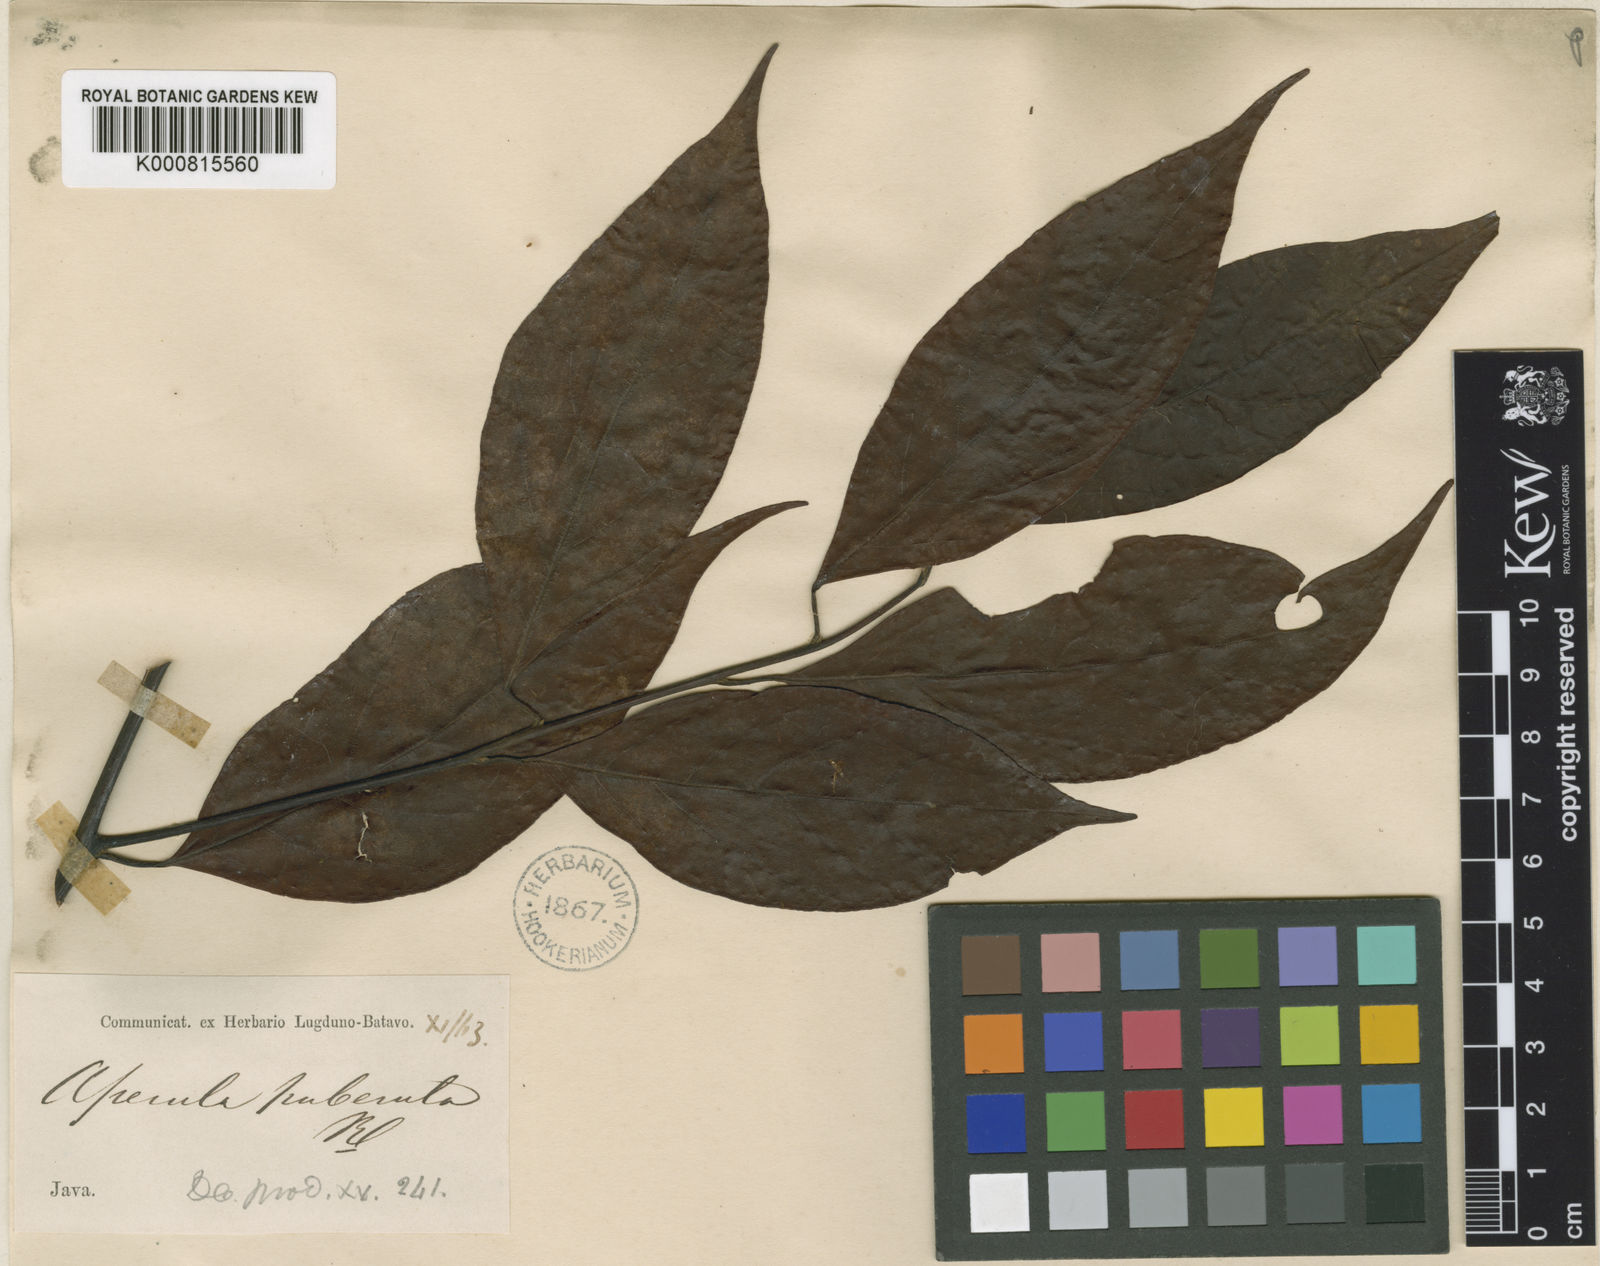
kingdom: Plantae
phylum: Tracheophyta
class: Magnoliopsida
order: Laurales
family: Lauraceae
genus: Litsea
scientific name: Litsea moupinensis
